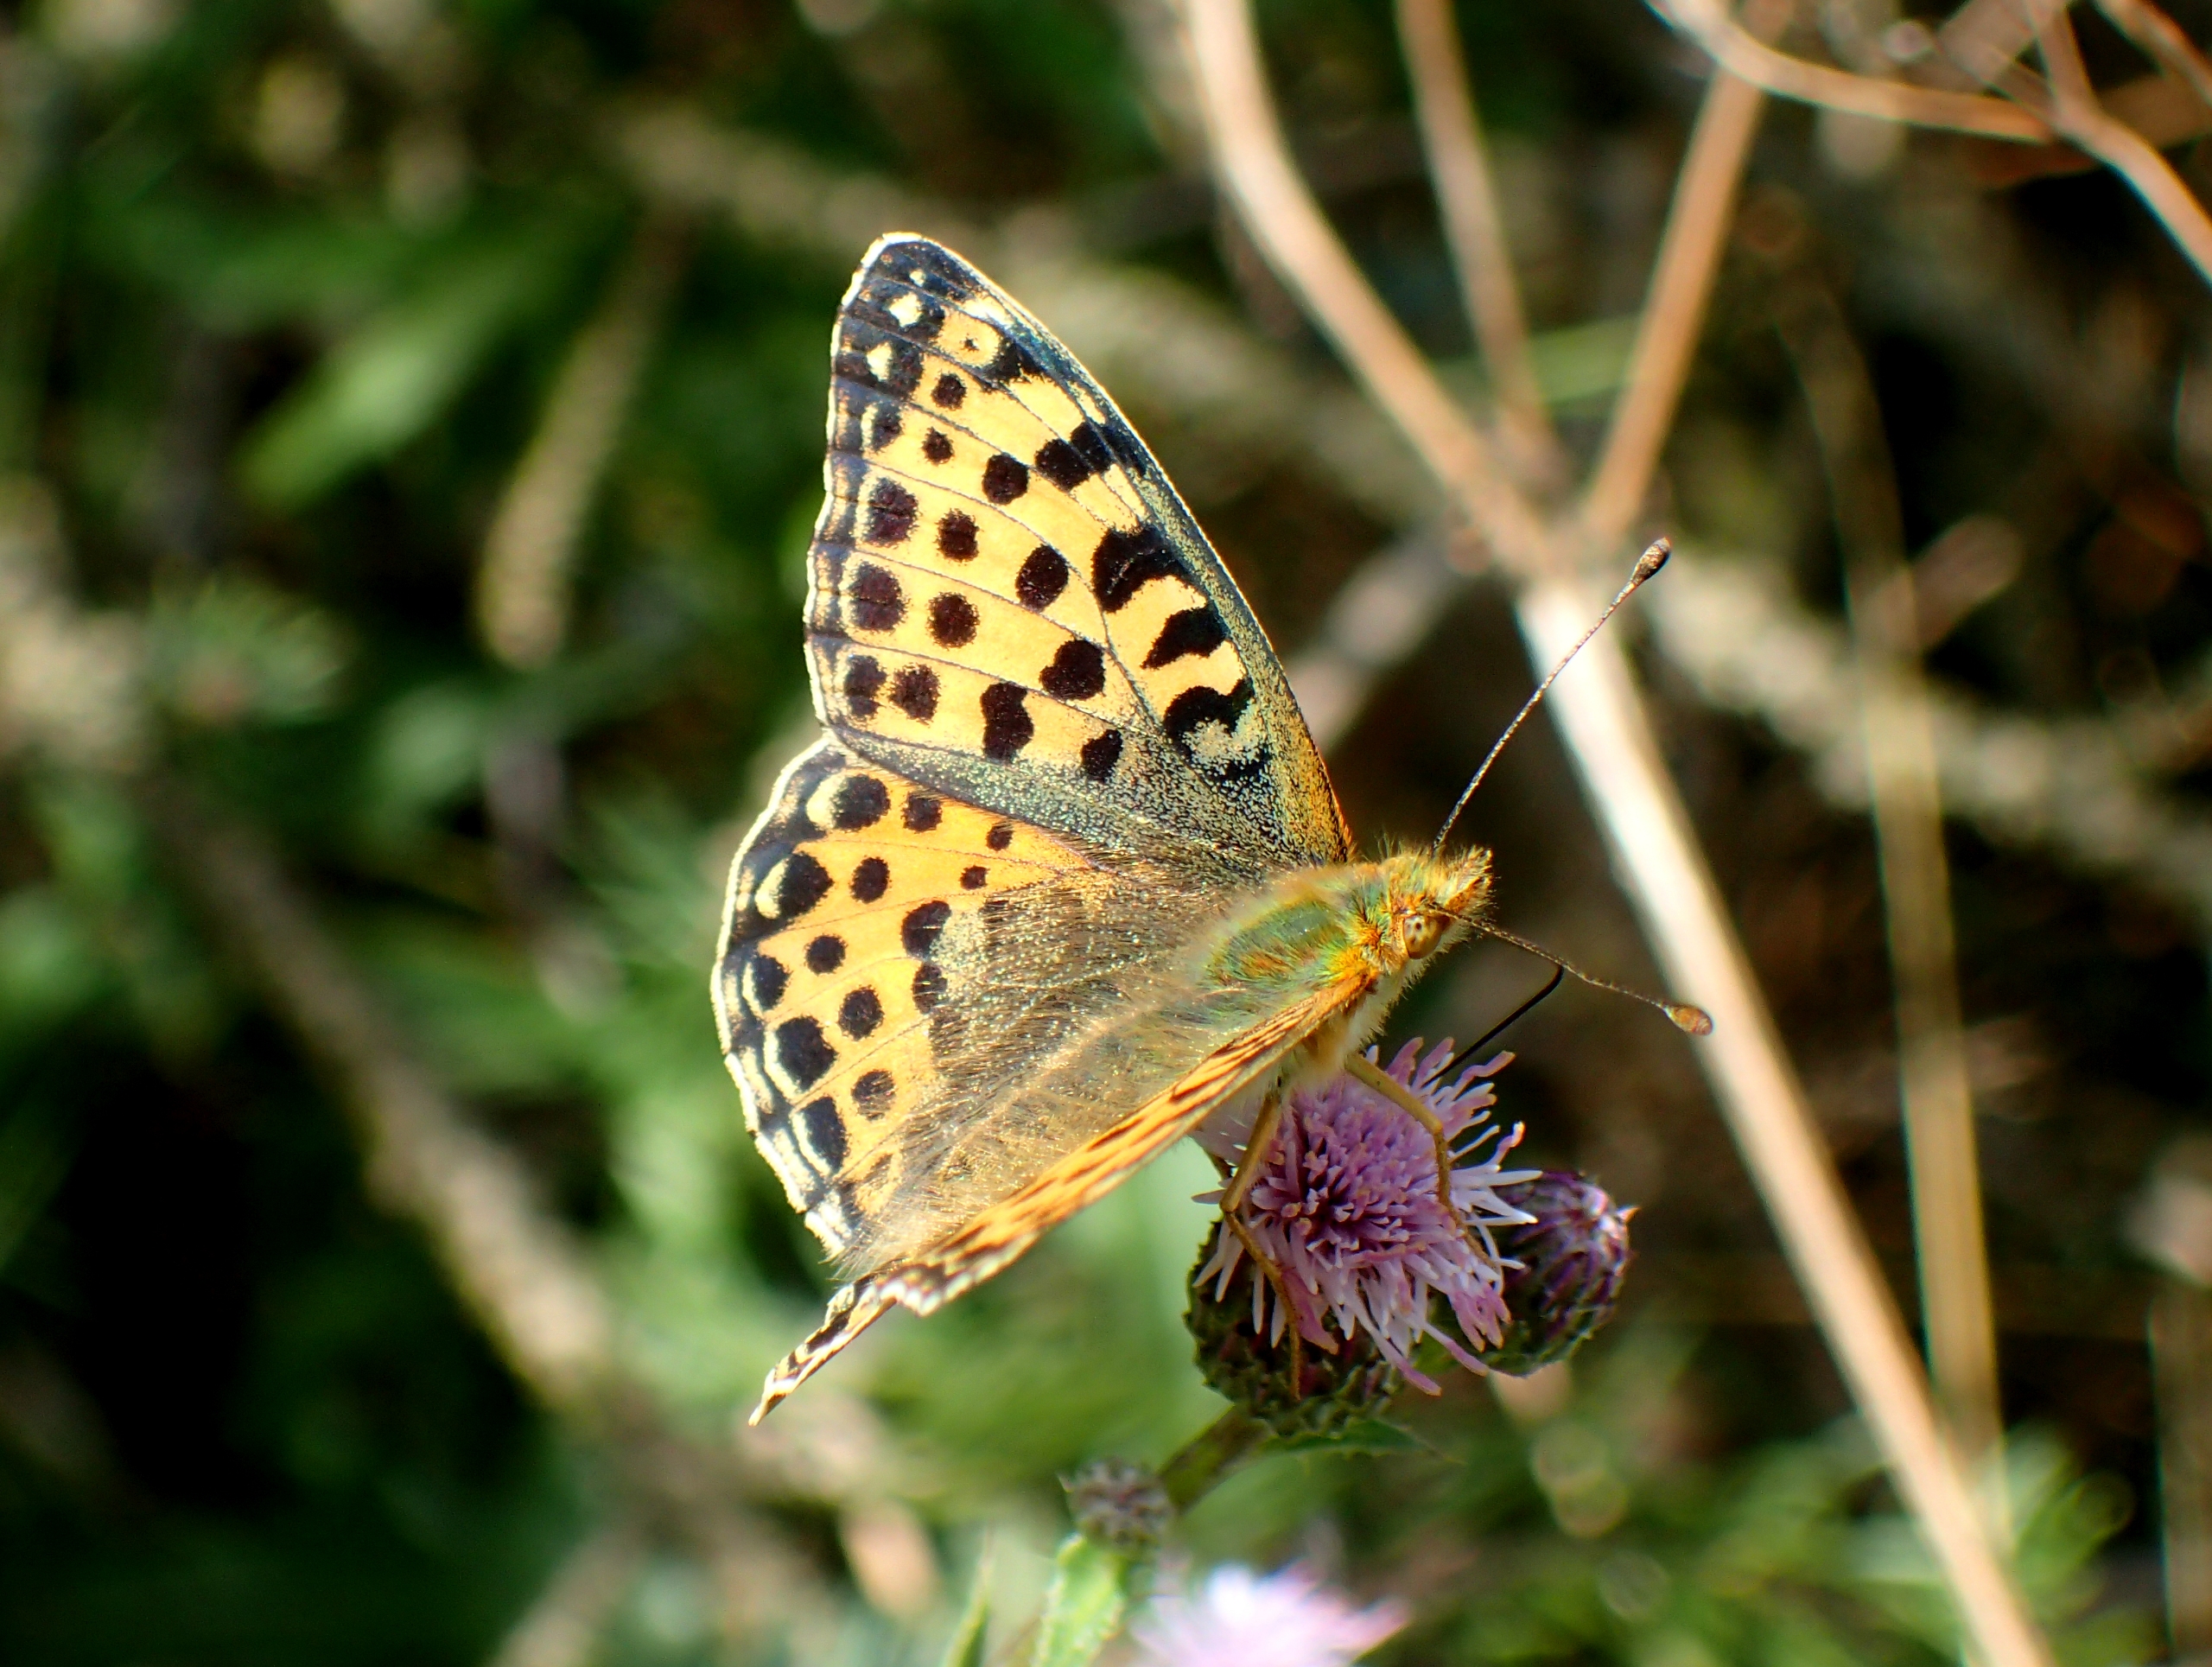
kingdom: Animalia
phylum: Arthropoda
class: Insecta
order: Lepidoptera
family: Nymphalidae
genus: Issoria
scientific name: Issoria lathonia
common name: Storplettet perlemorsommerfugl
